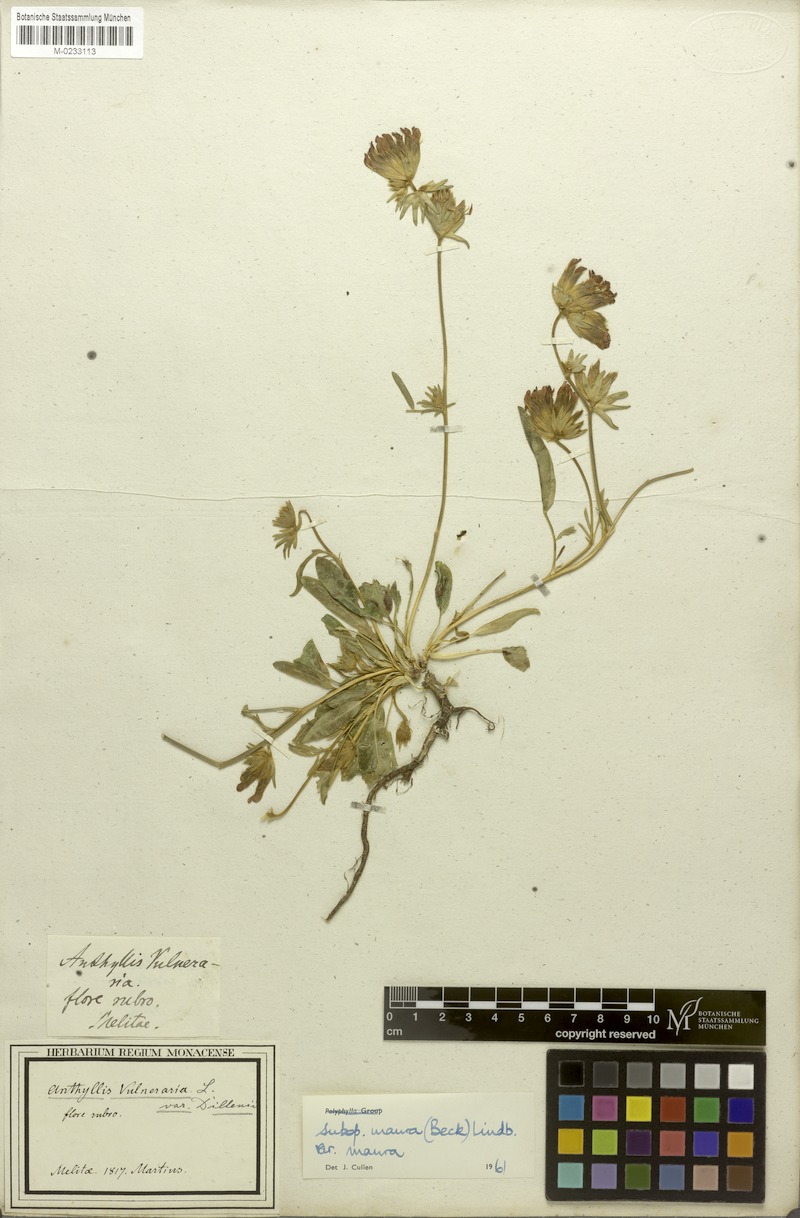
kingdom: Plantae
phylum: Tracheophyta
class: Magnoliopsida
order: Fabales
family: Fabaceae
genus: Anthyllis
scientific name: Anthyllis vulneraria
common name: Kidney vetch
